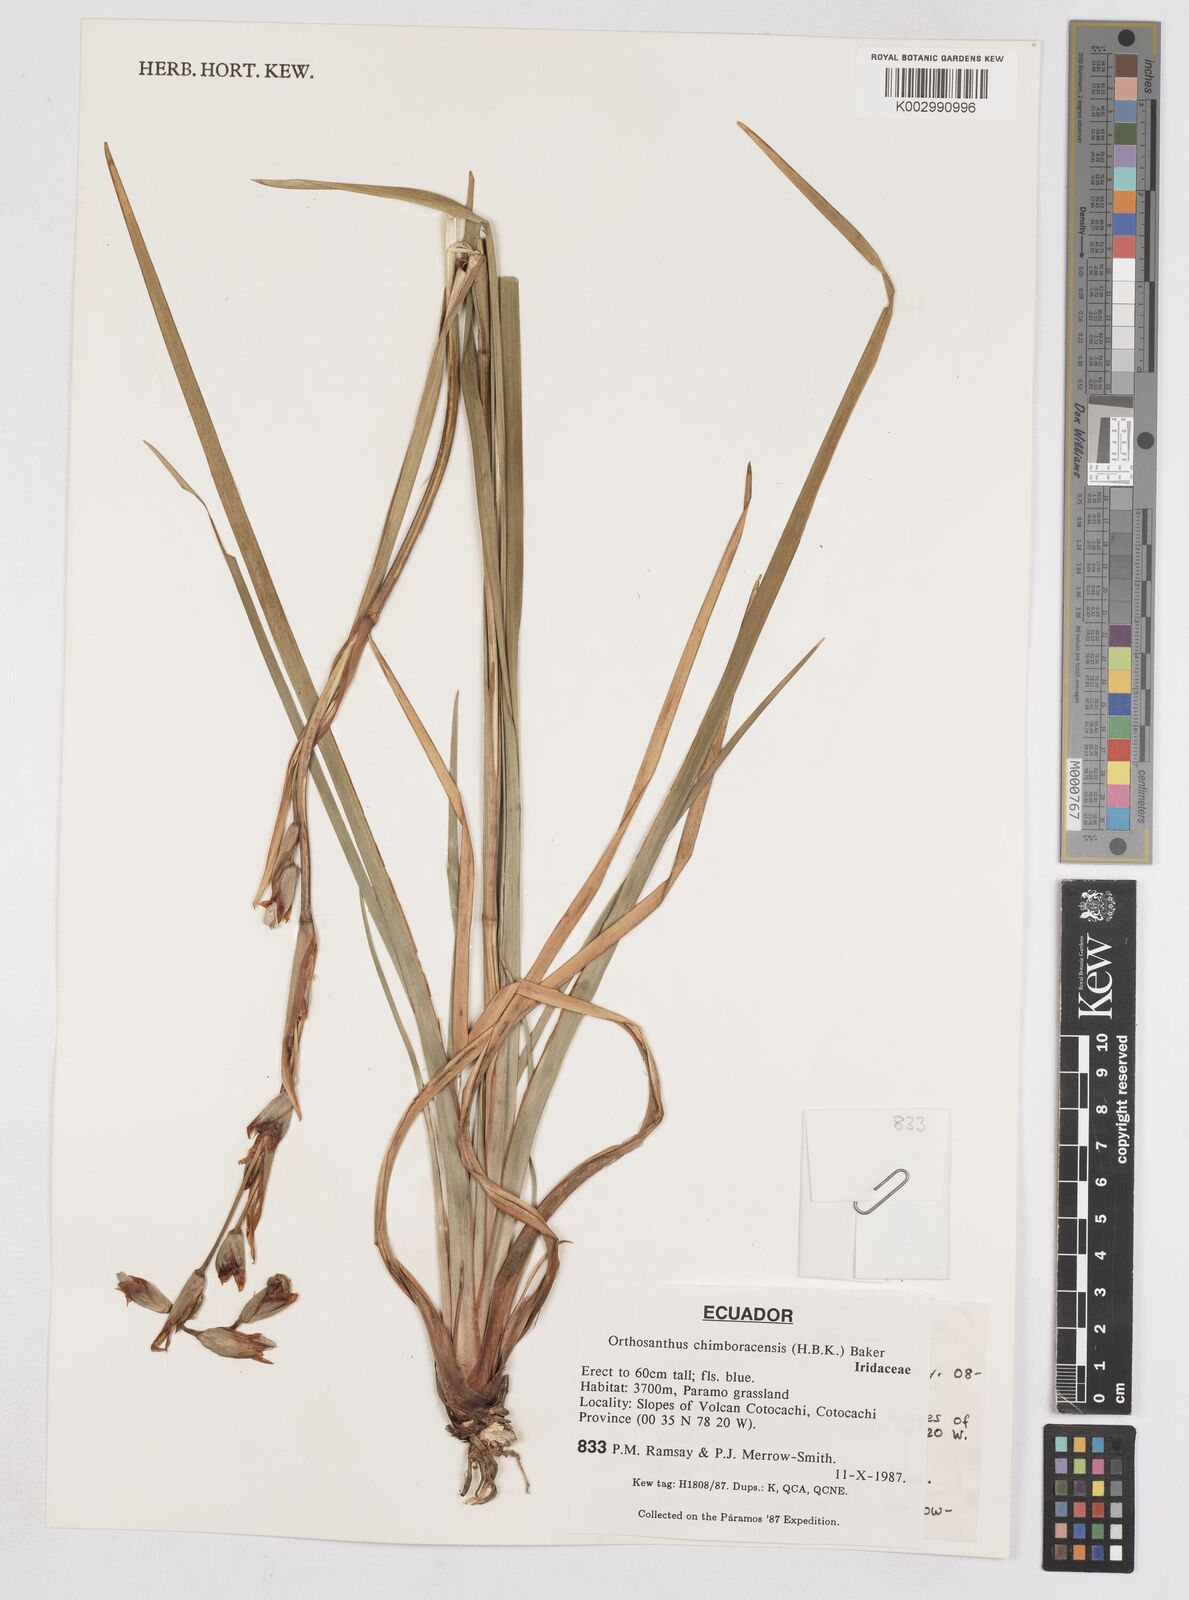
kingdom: Plantae
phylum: Tracheophyta
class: Liliopsida
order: Asparagales
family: Iridaceae
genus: Orthrosanthus
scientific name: Orthrosanthus chimboracensis
